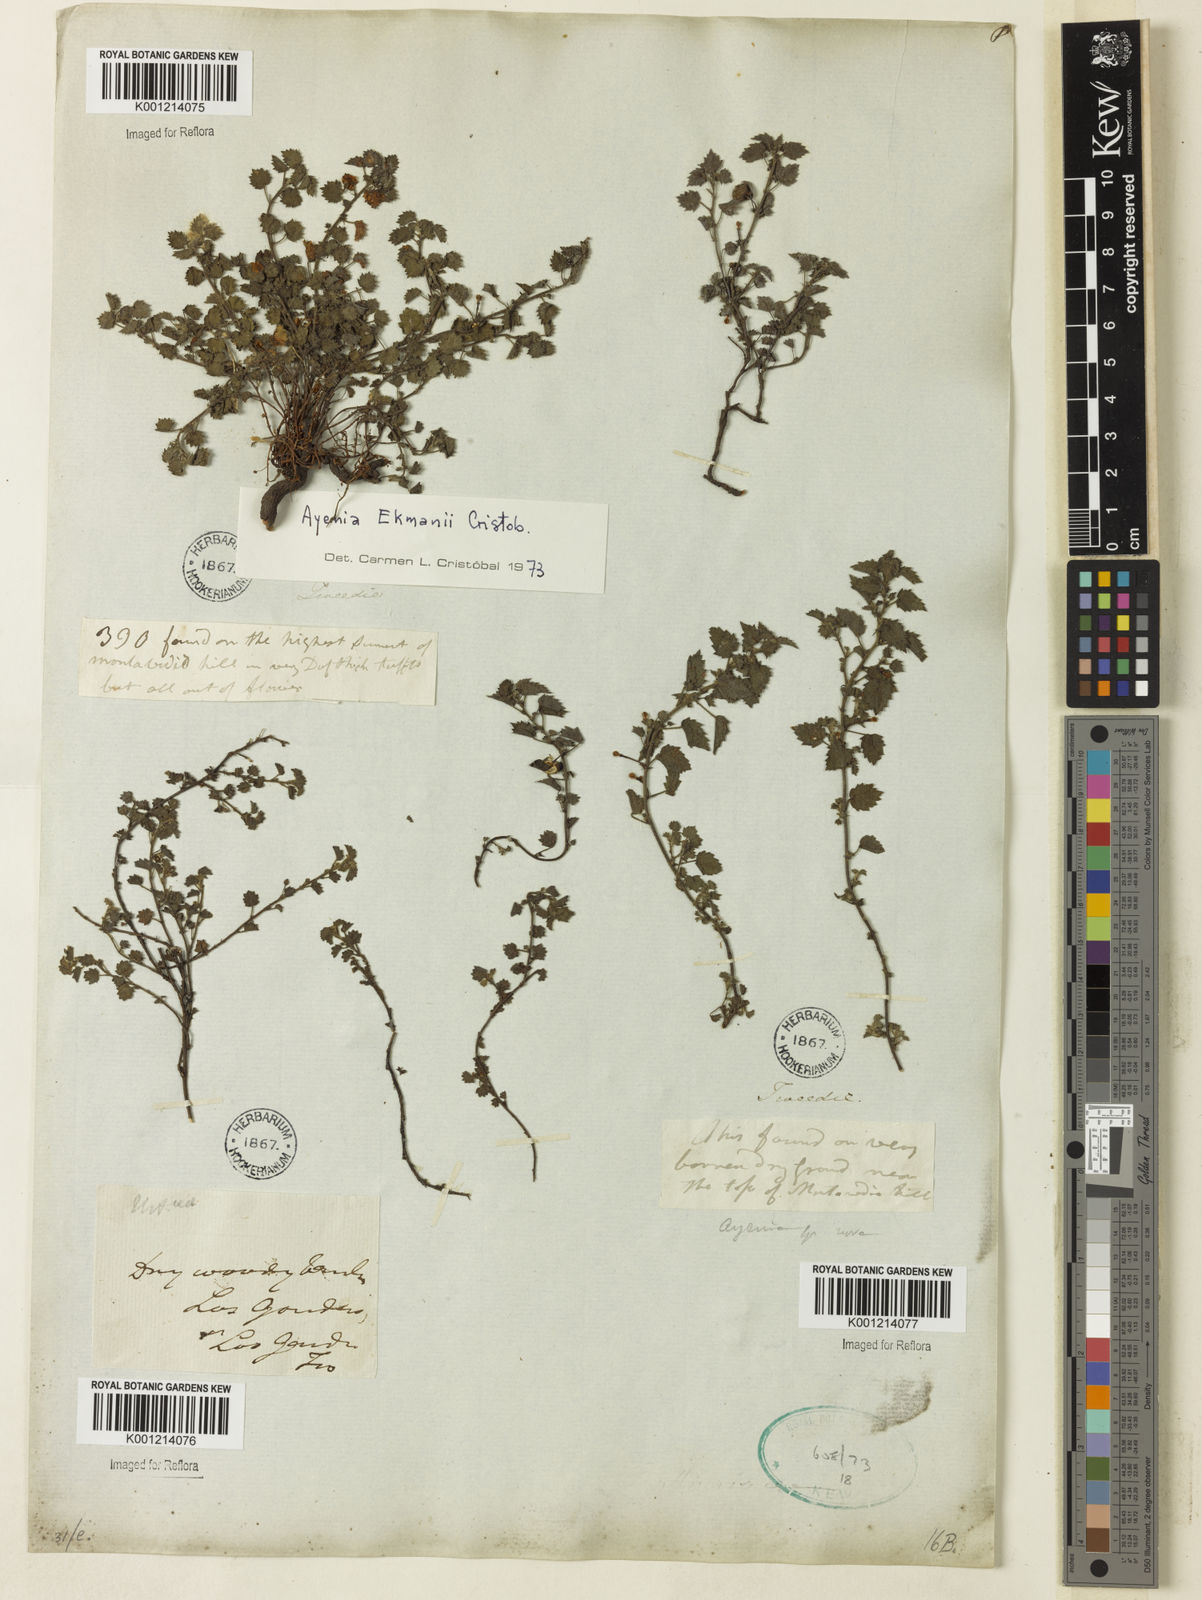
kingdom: Plantae
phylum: Tracheophyta
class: Magnoliopsida
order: Malvales
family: Malvaceae
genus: Ayenia
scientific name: Ayenia
